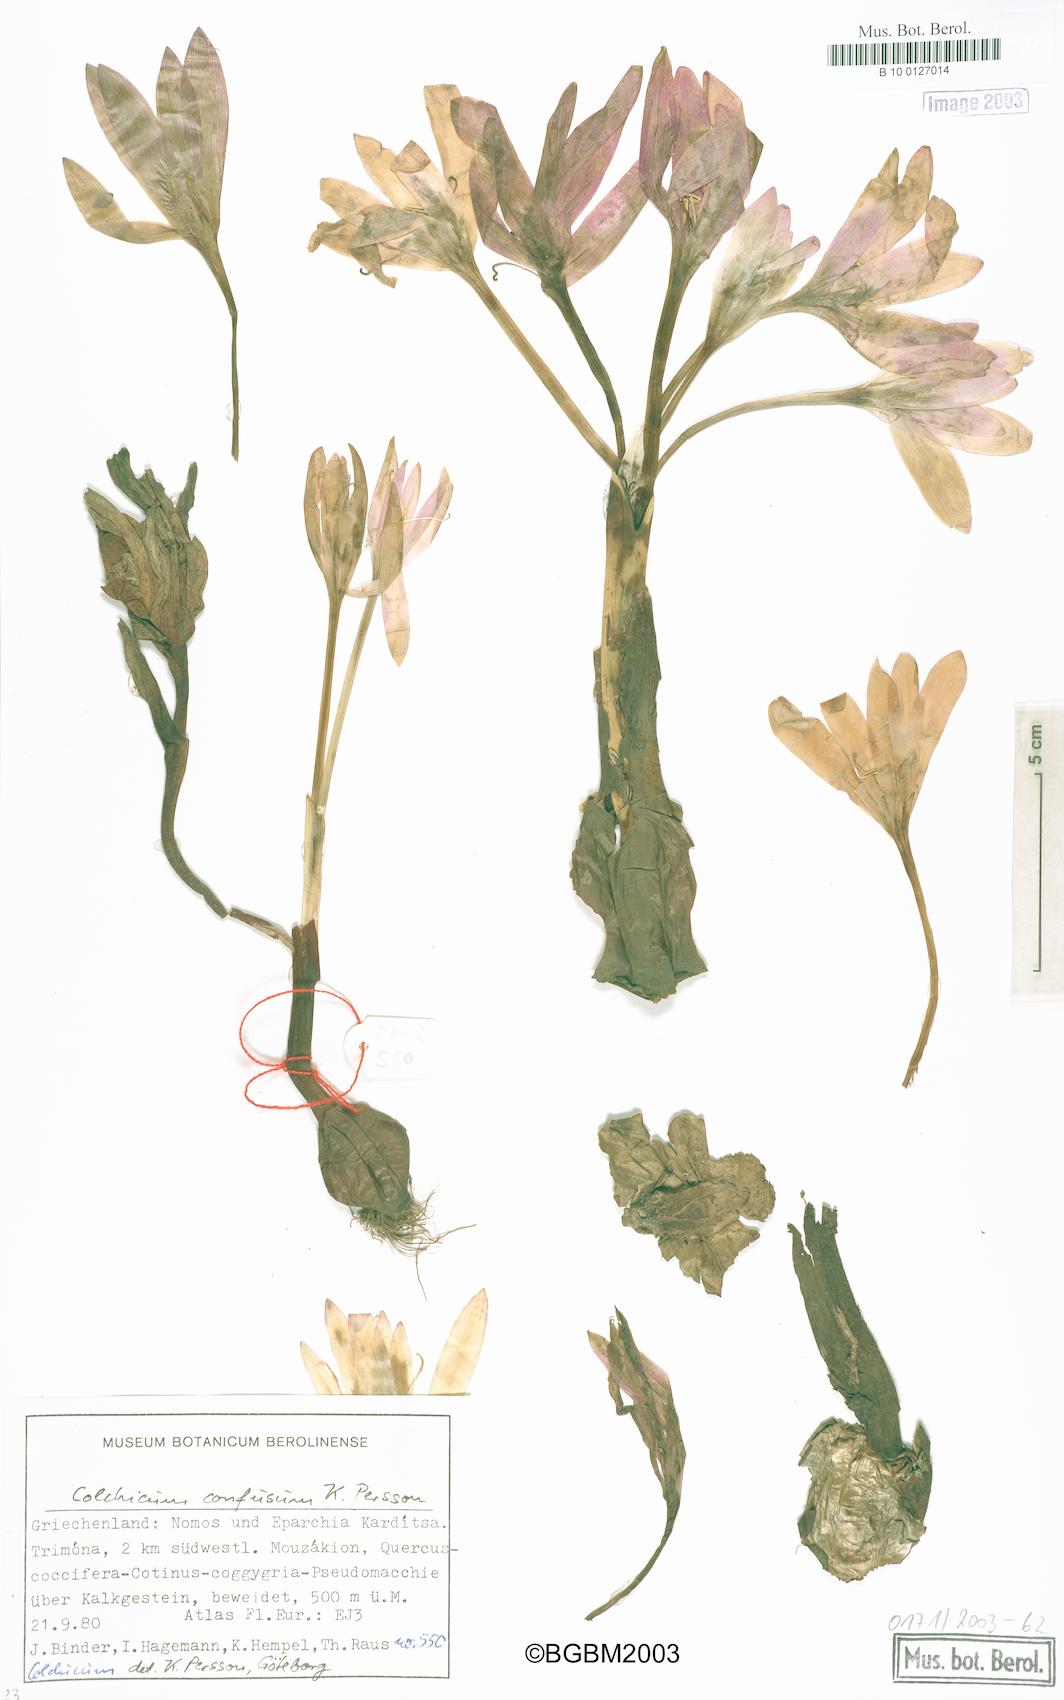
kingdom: Plantae
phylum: Tracheophyta
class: Liliopsida
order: Liliales
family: Colchicaceae
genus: Colchicum
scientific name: Colchicum confusum
